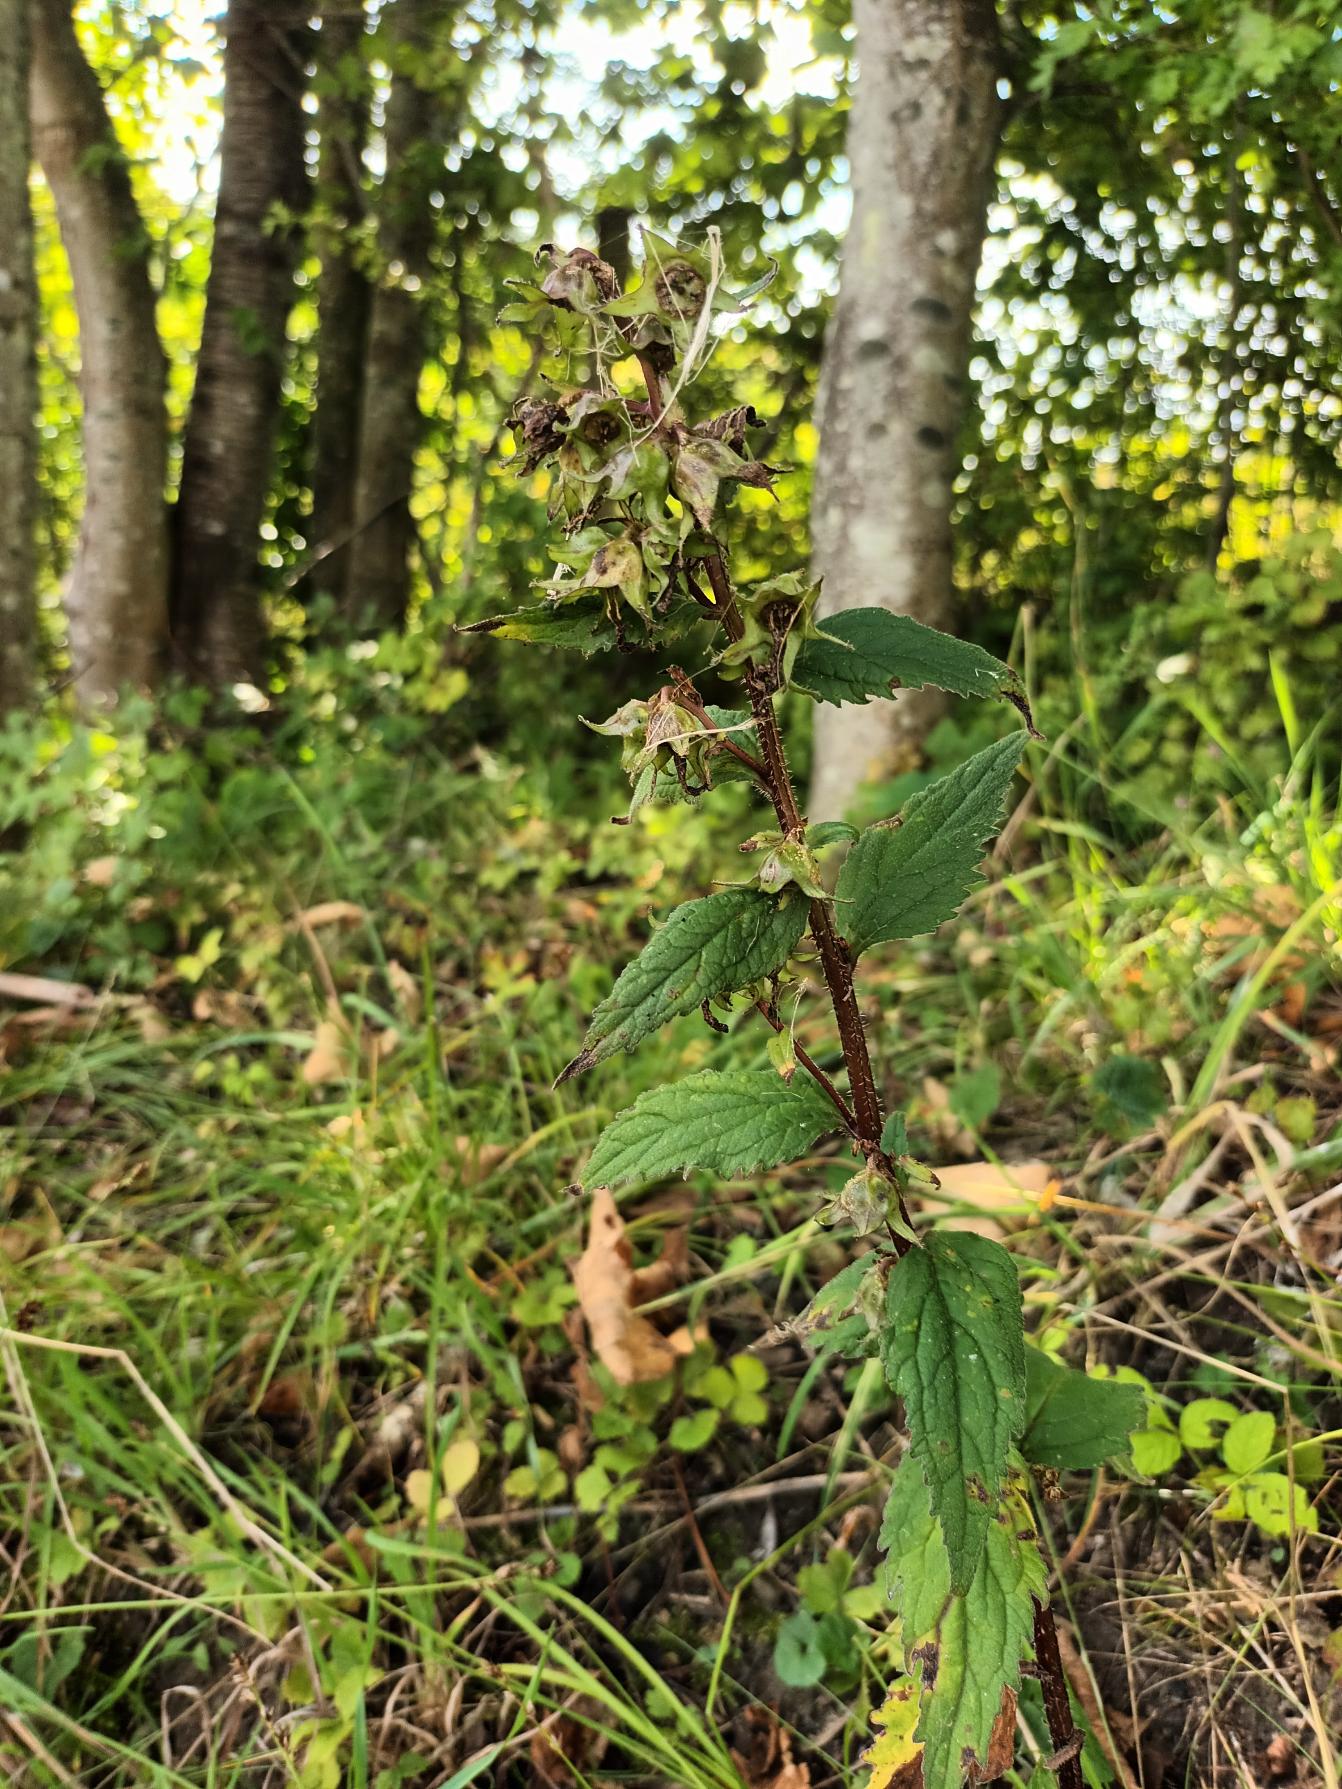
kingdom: Plantae
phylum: Tracheophyta
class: Magnoliopsida
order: Asterales
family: Campanulaceae
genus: Campanula
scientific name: Campanula trachelium
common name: Nælde-klokke
